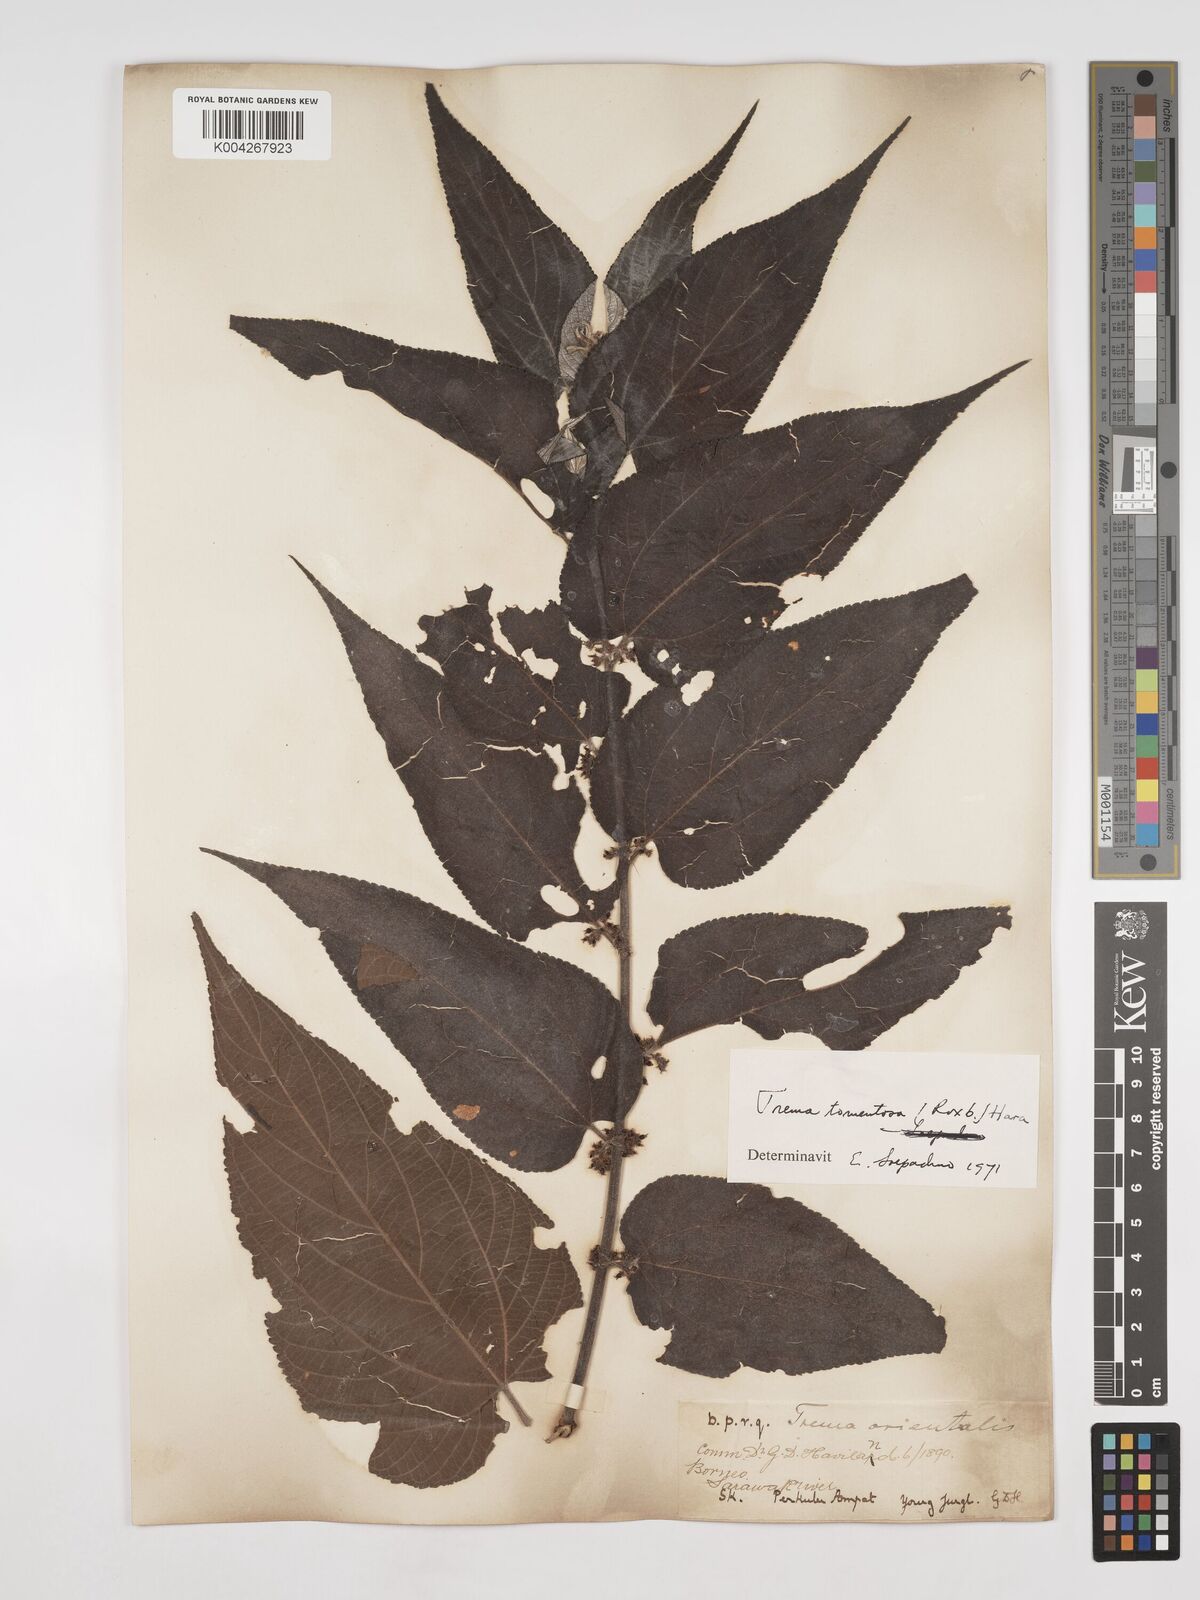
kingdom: Plantae
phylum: Tracheophyta
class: Magnoliopsida
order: Rosales
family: Cannabaceae
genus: Trema
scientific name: Trema tomentosum
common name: Peach-leaf-poisonbush
